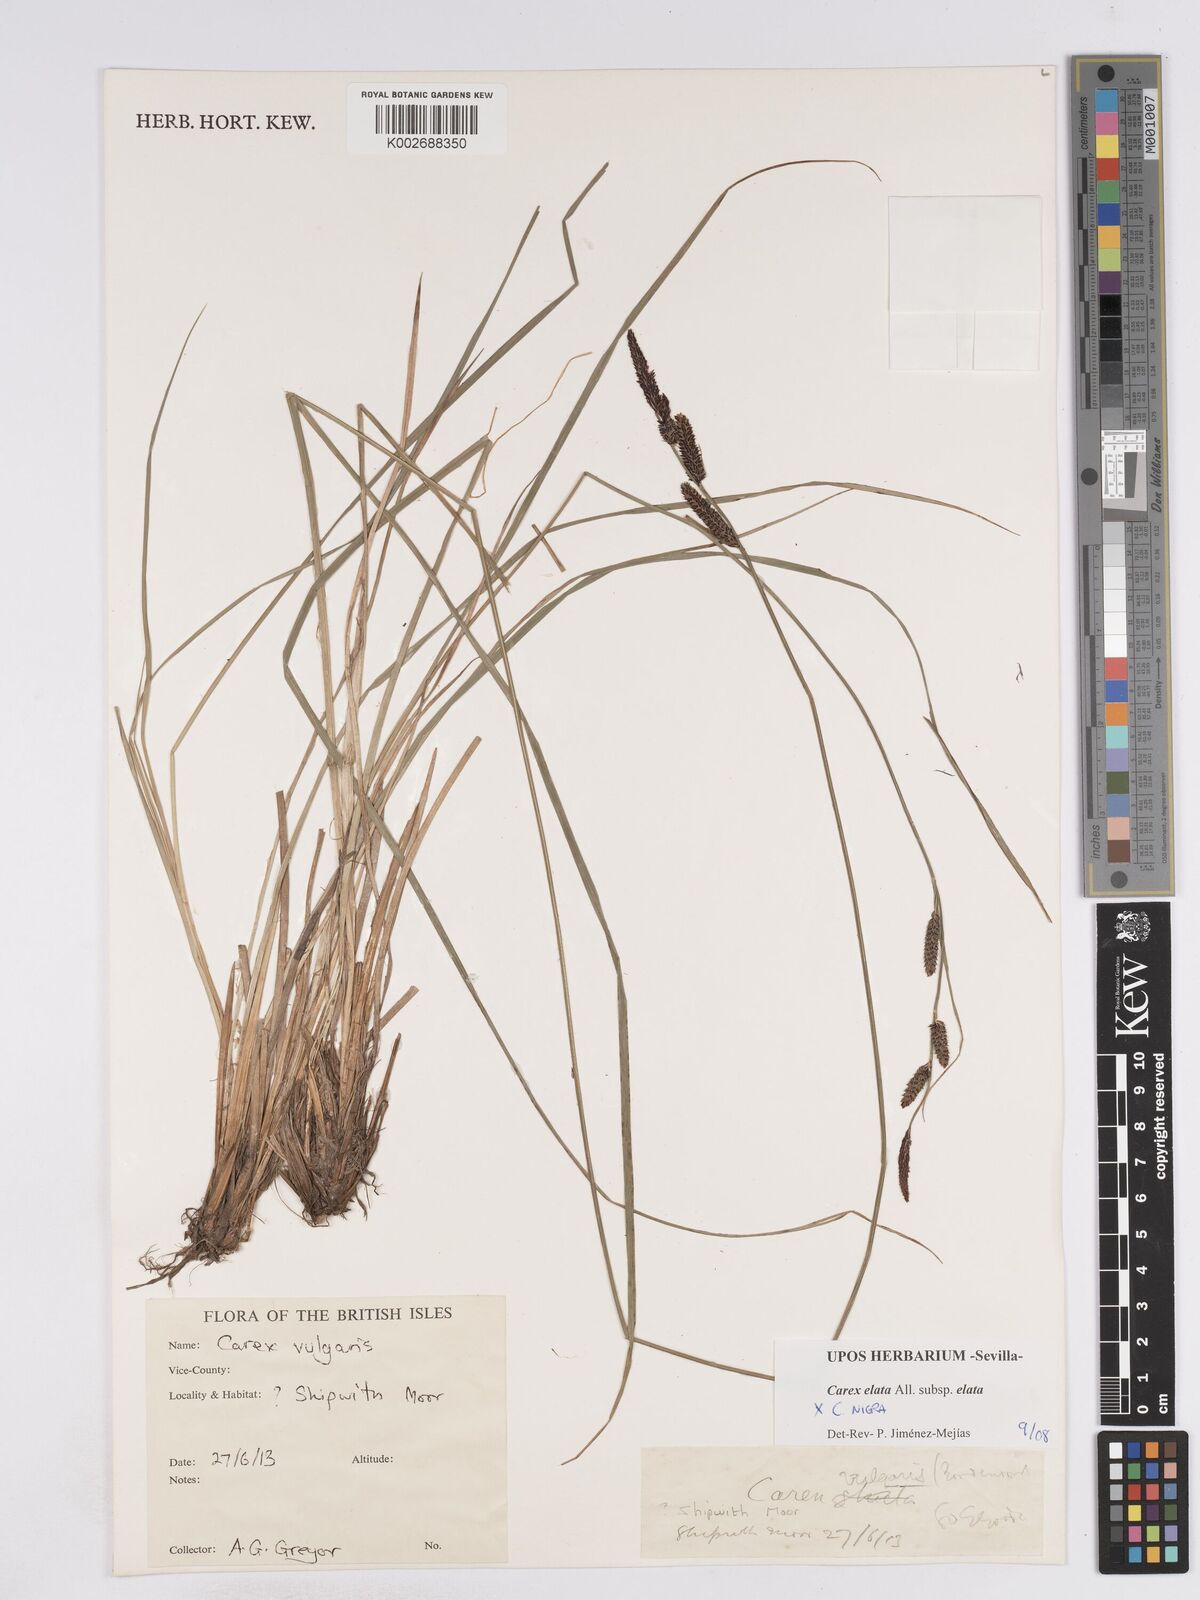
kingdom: Plantae
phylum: Tracheophyta
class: Liliopsida
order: Poales
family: Cyperaceae
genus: Carex
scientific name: Carex elata
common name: Tufted sedge
